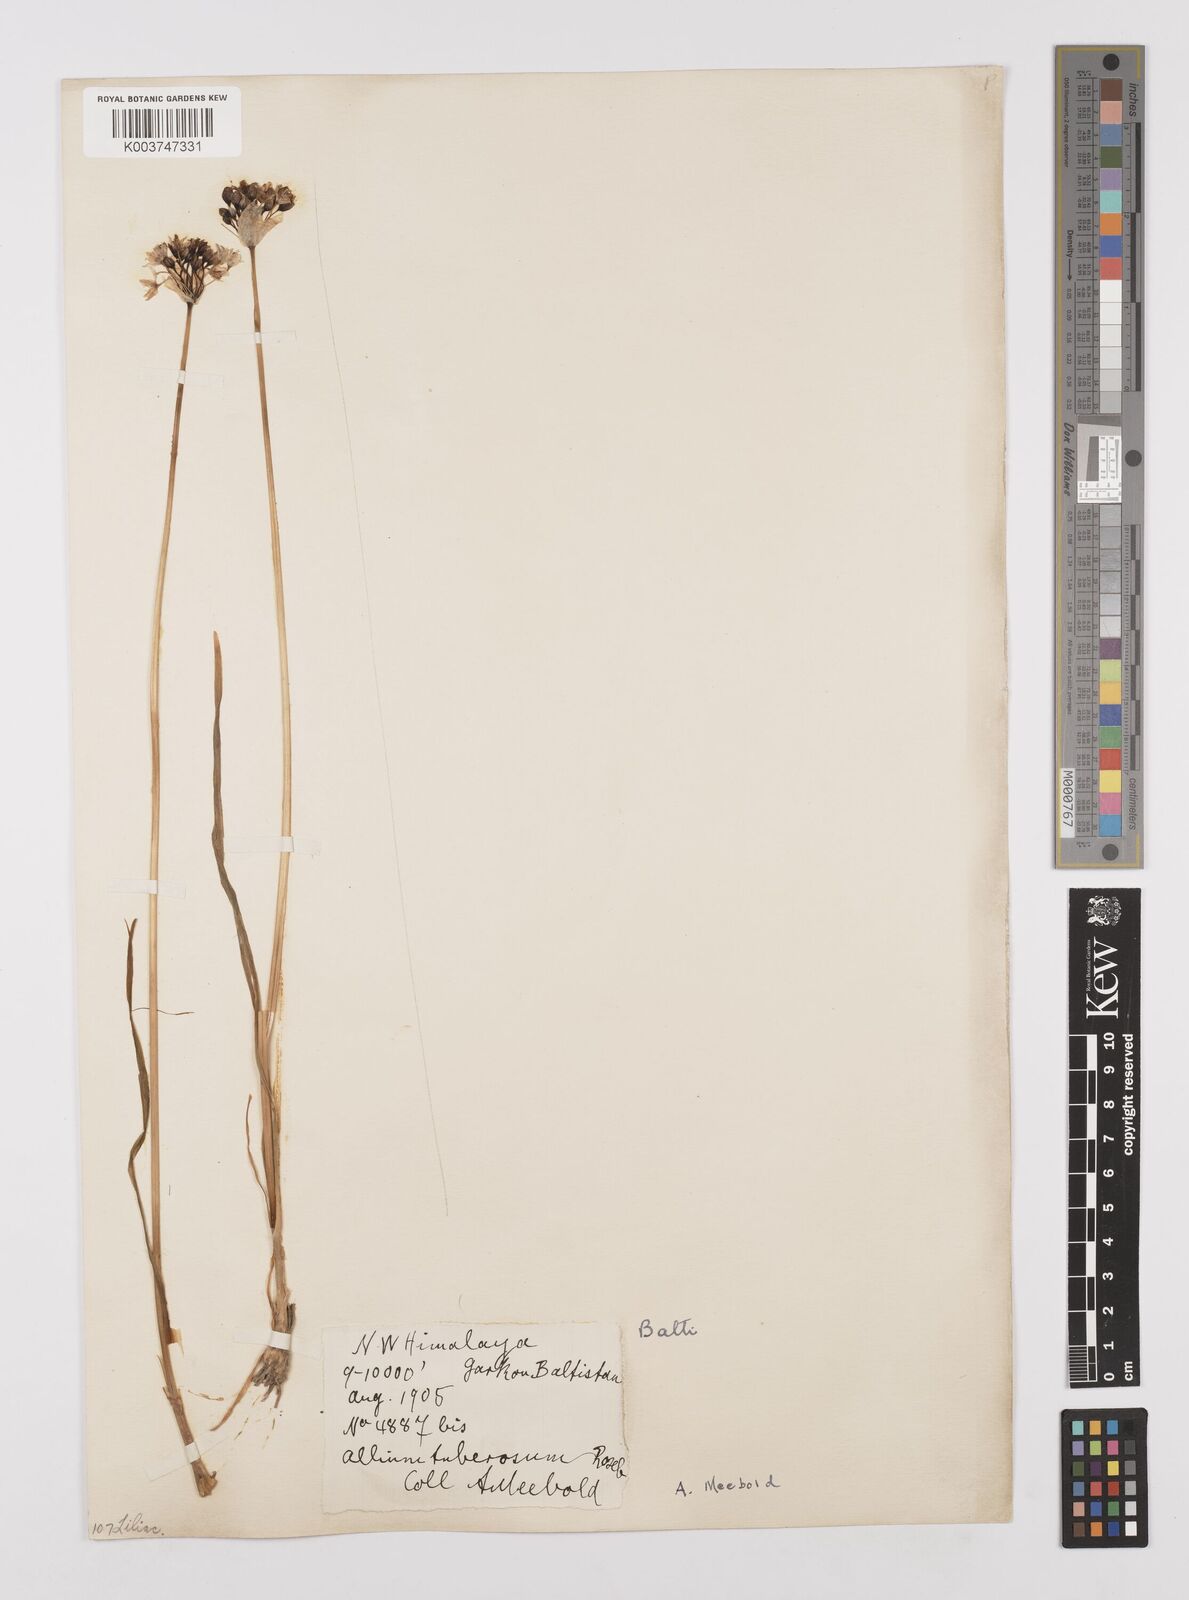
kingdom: Plantae
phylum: Tracheophyta
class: Liliopsida
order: Asparagales
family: Amaryllidaceae
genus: Allium
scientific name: Allium tuberosum
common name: Chinese chives
